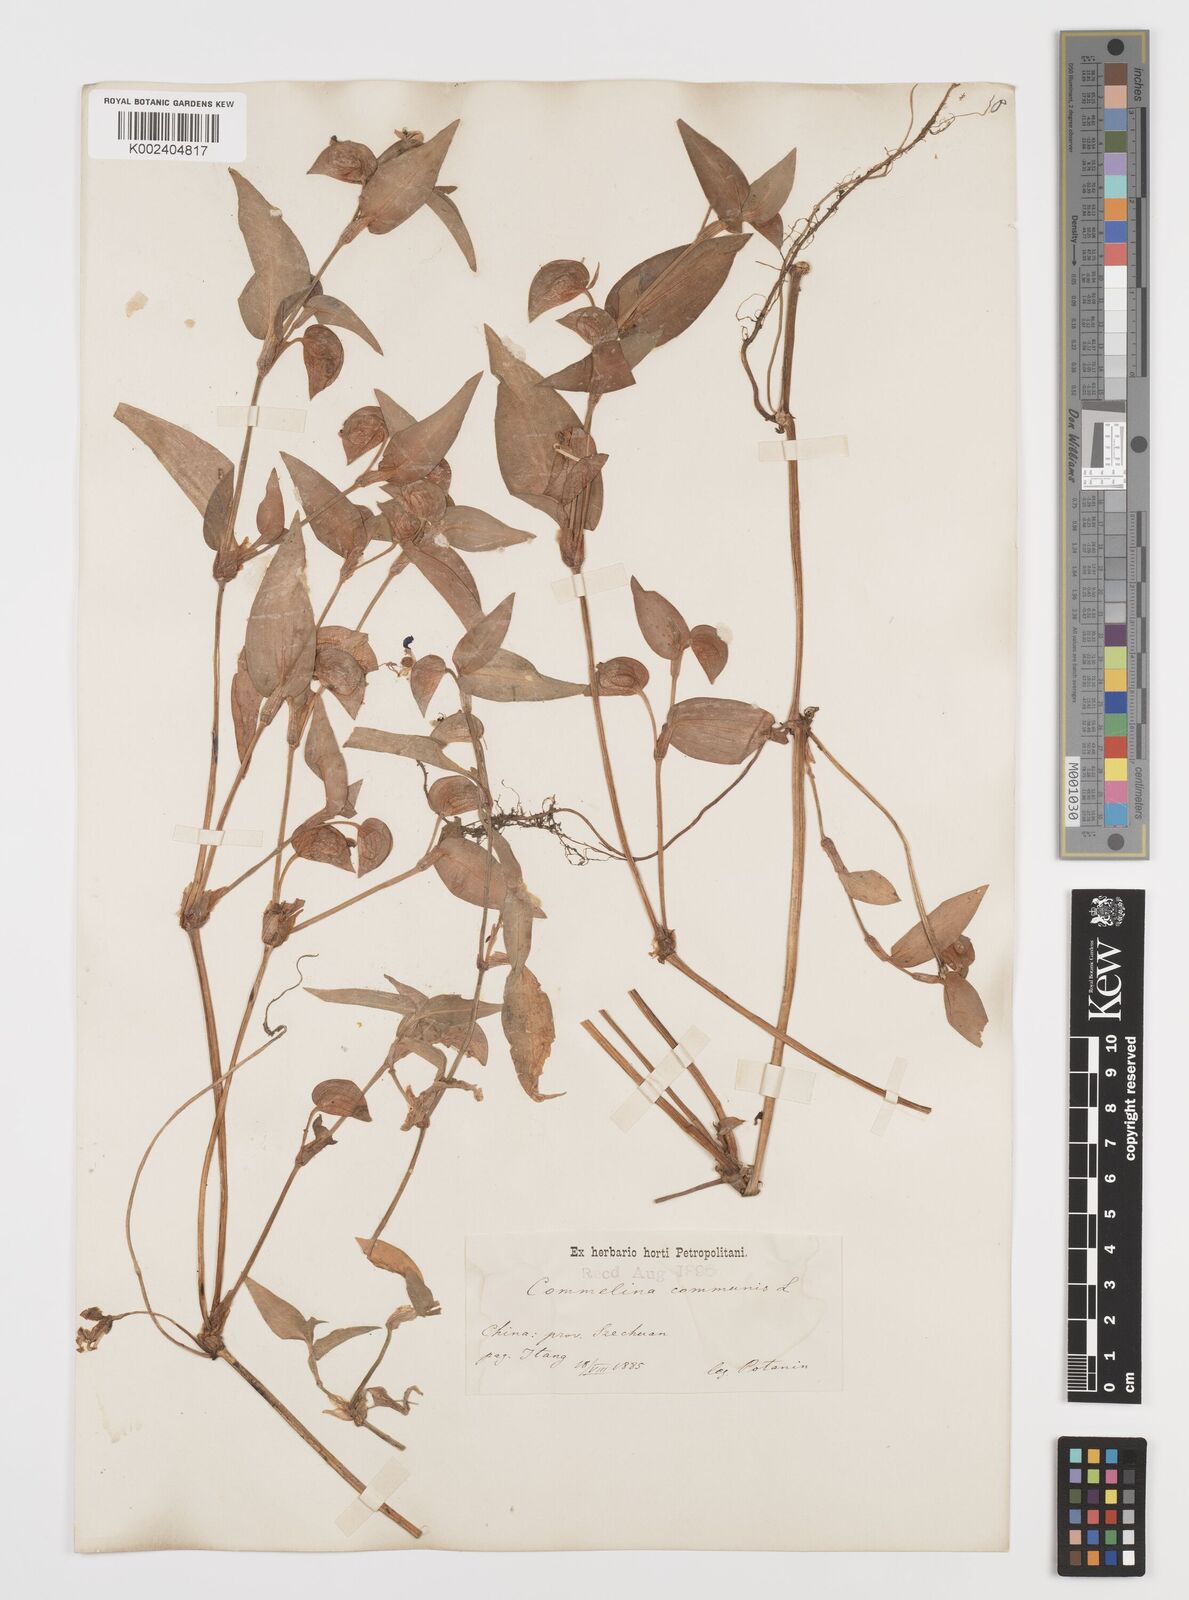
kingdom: Plantae
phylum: Tracheophyta
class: Liliopsida
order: Commelinales
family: Commelinaceae
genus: Commelina
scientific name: Commelina communis
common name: Asiatic dayflower
